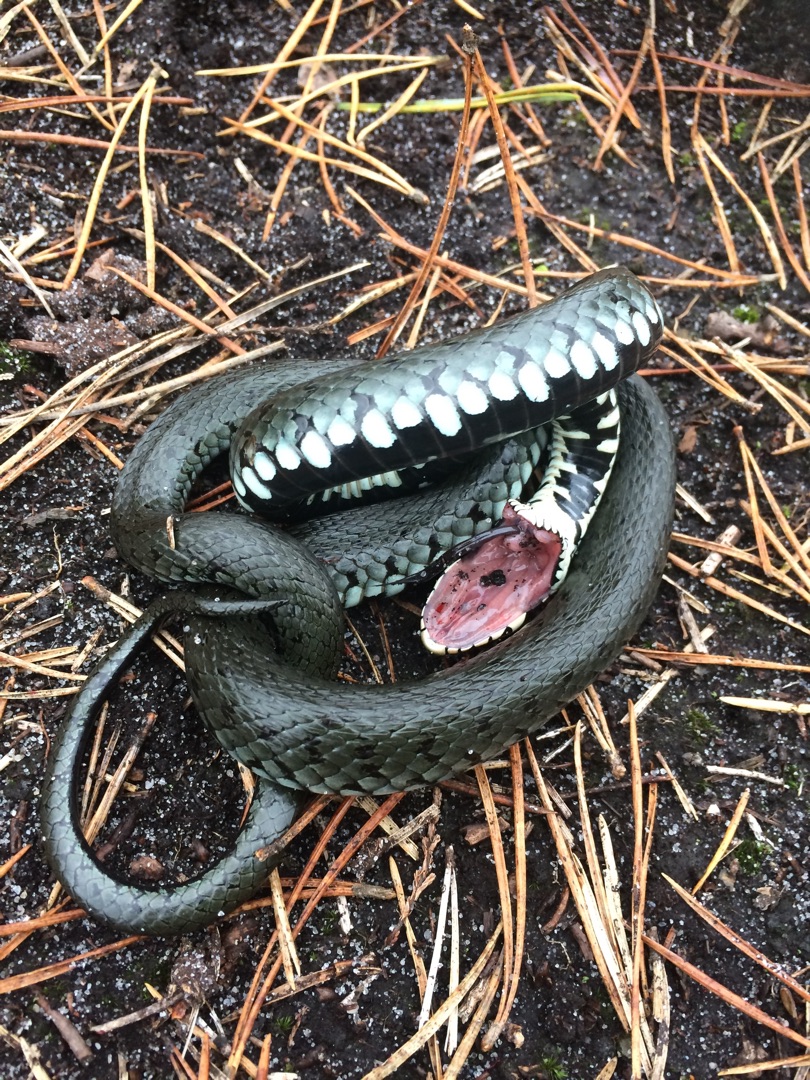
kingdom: Animalia
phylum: Chordata
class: Squamata
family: Colubridae
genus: Natrix
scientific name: Natrix natrix
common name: Snog
